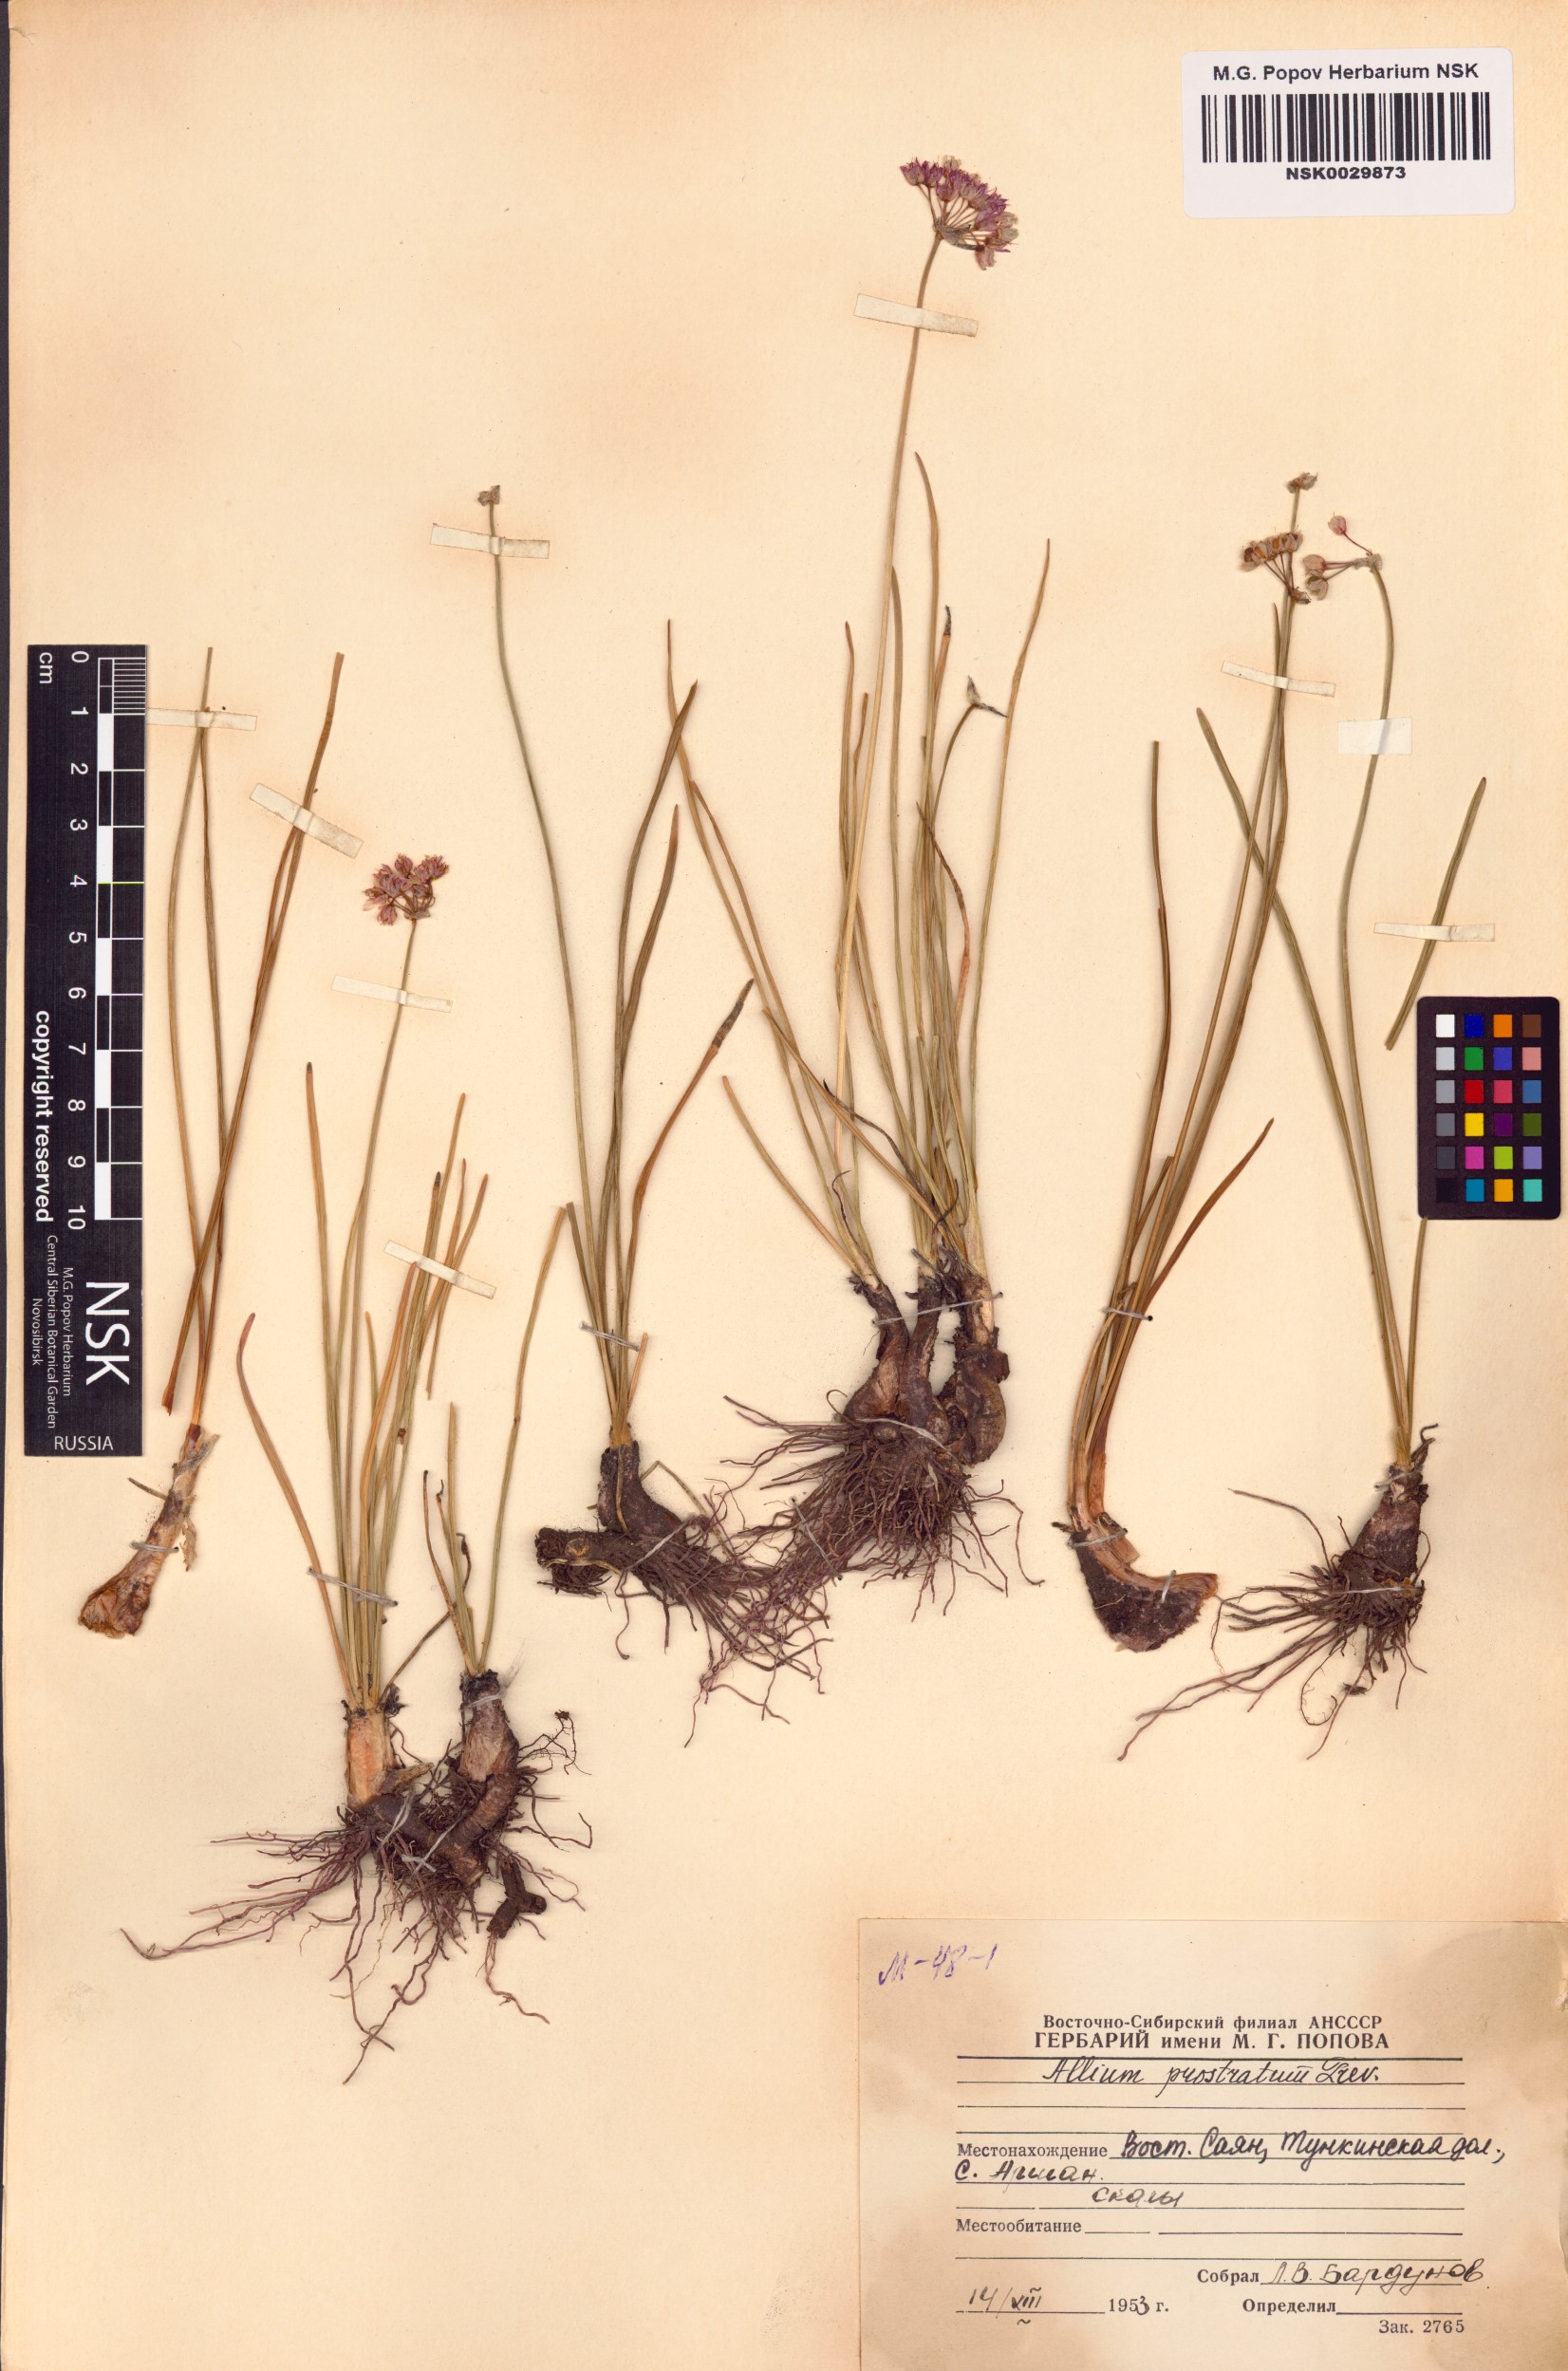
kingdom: Plantae
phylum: Tracheophyta
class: Liliopsida
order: Asparagales
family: Amaryllidaceae
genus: Allium
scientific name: Allium prostratum
